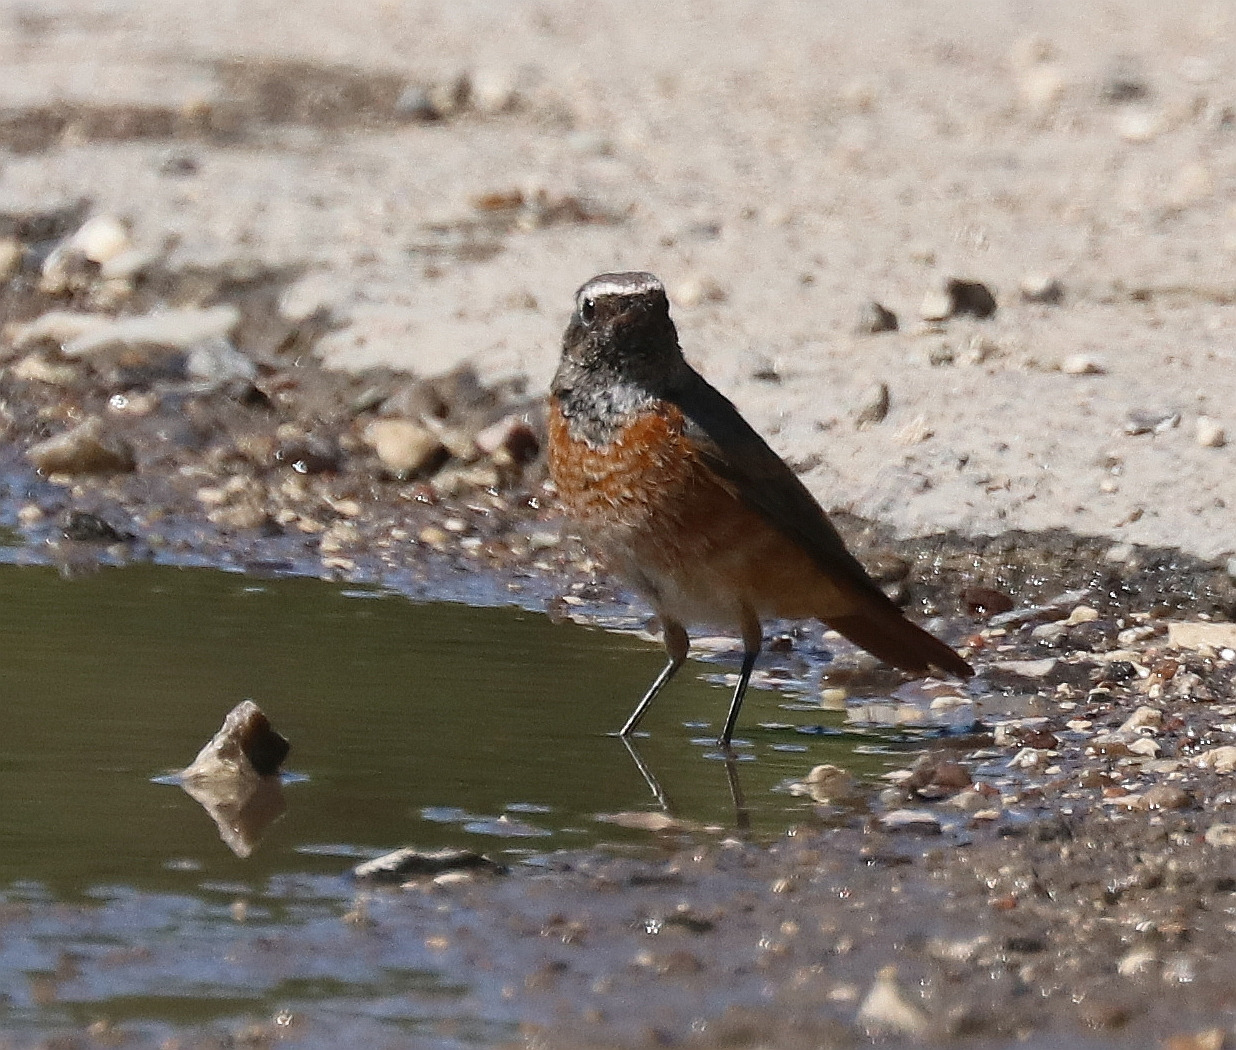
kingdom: Animalia
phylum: Chordata
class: Aves
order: Passeriformes
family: Muscicapidae
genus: Phoenicurus
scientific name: Phoenicurus phoenicurus
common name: Rødstjert
